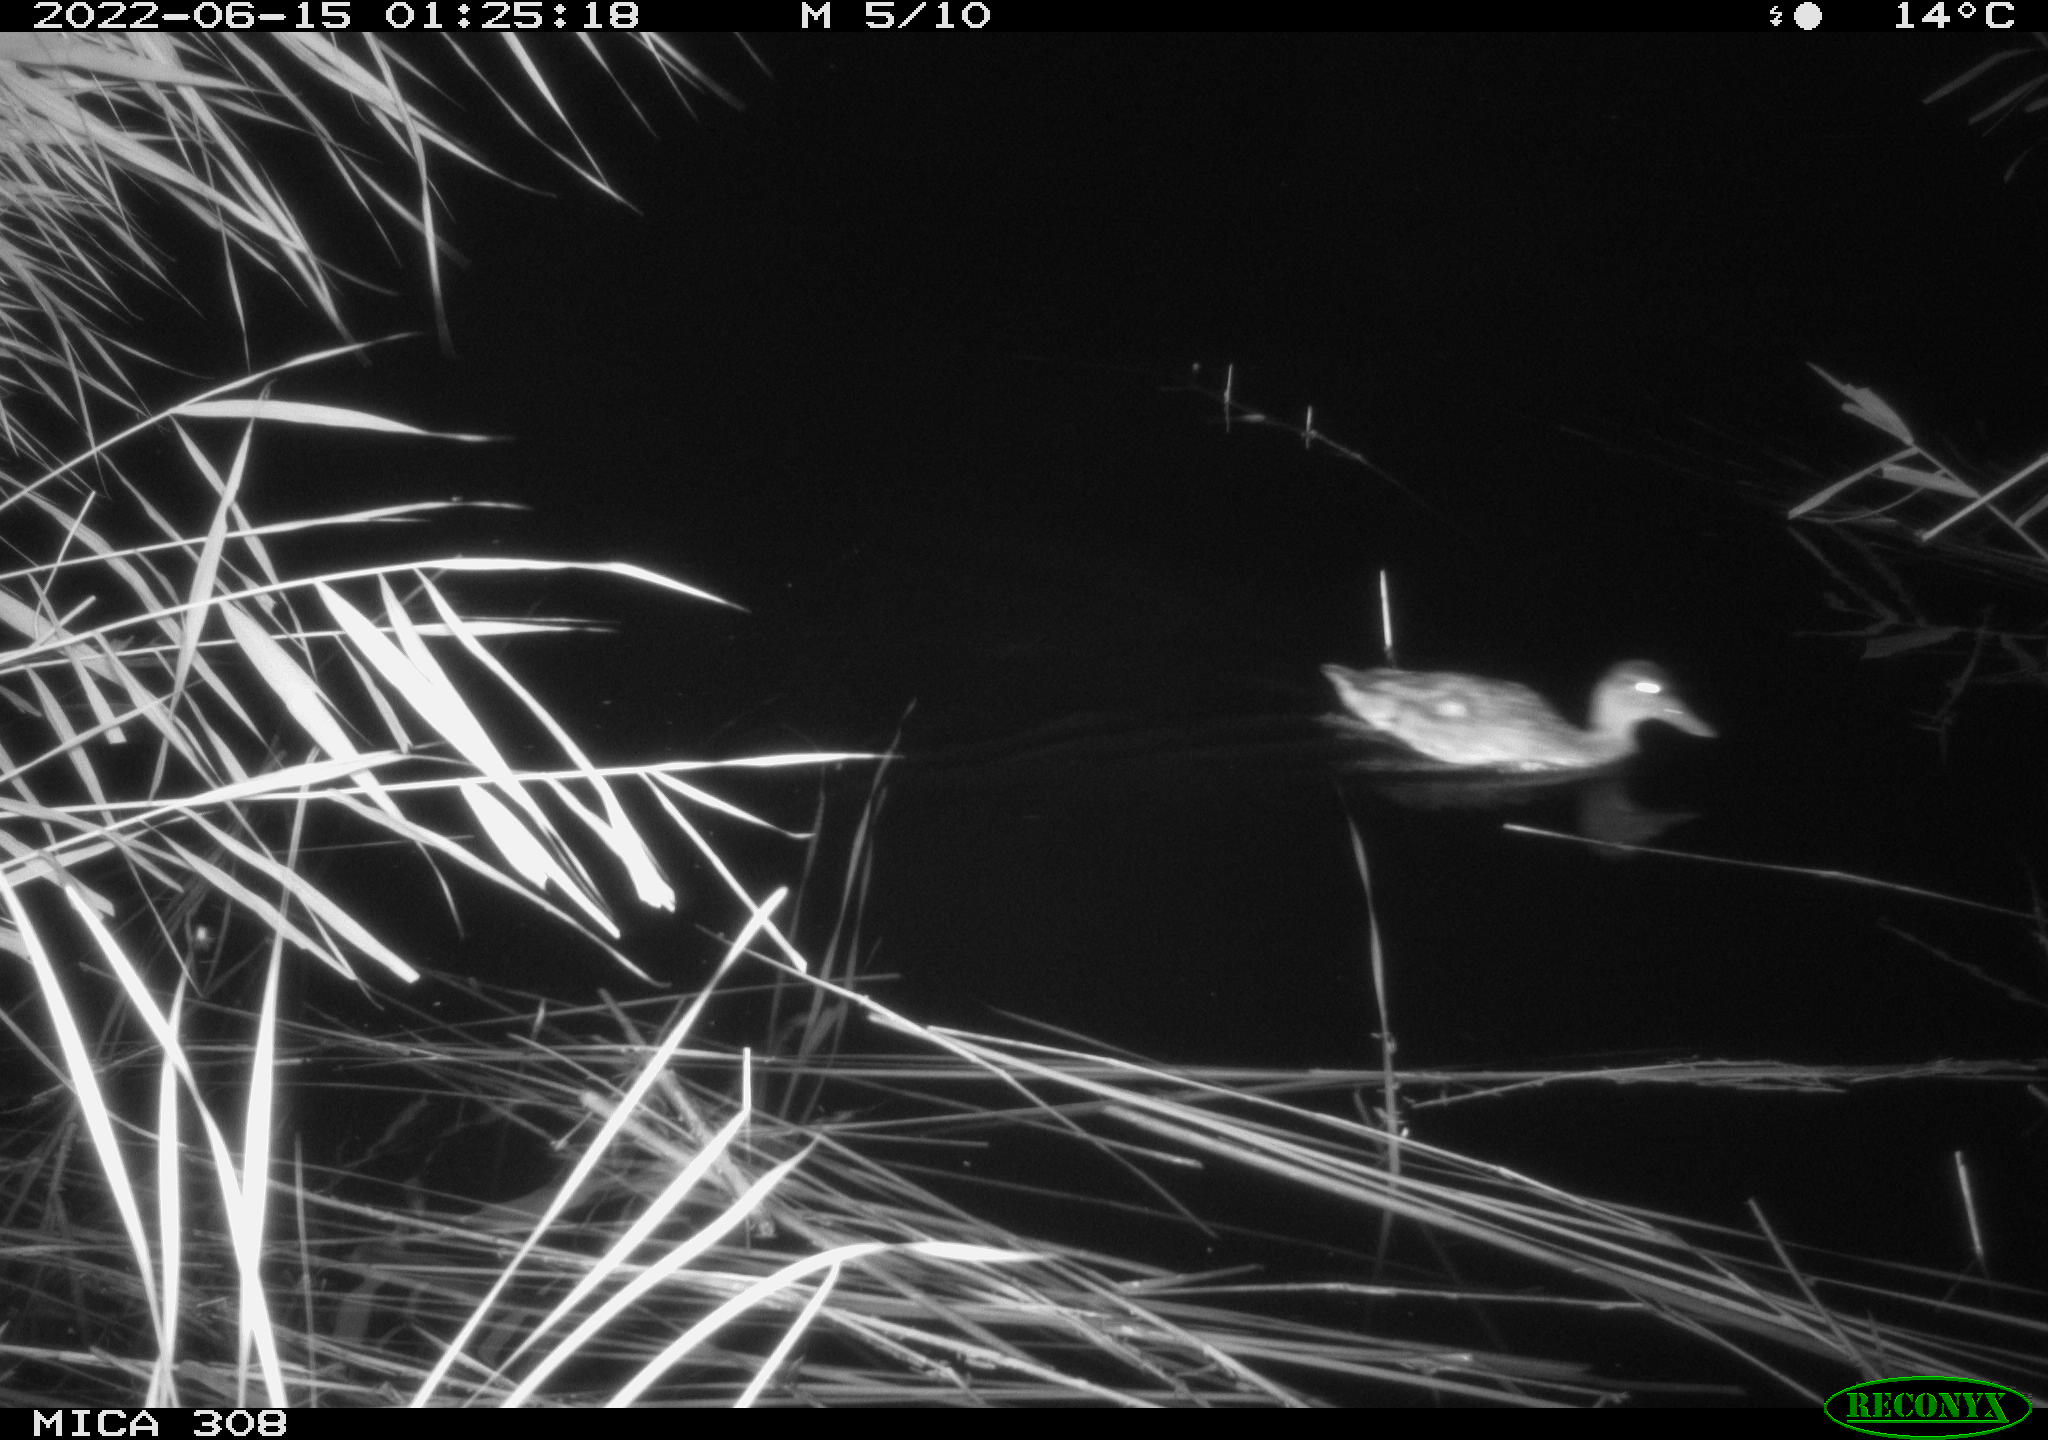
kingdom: Animalia
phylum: Chordata
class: Aves
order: Anseriformes
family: Anatidae
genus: Anas
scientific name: Anas platyrhynchos
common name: Mallard
